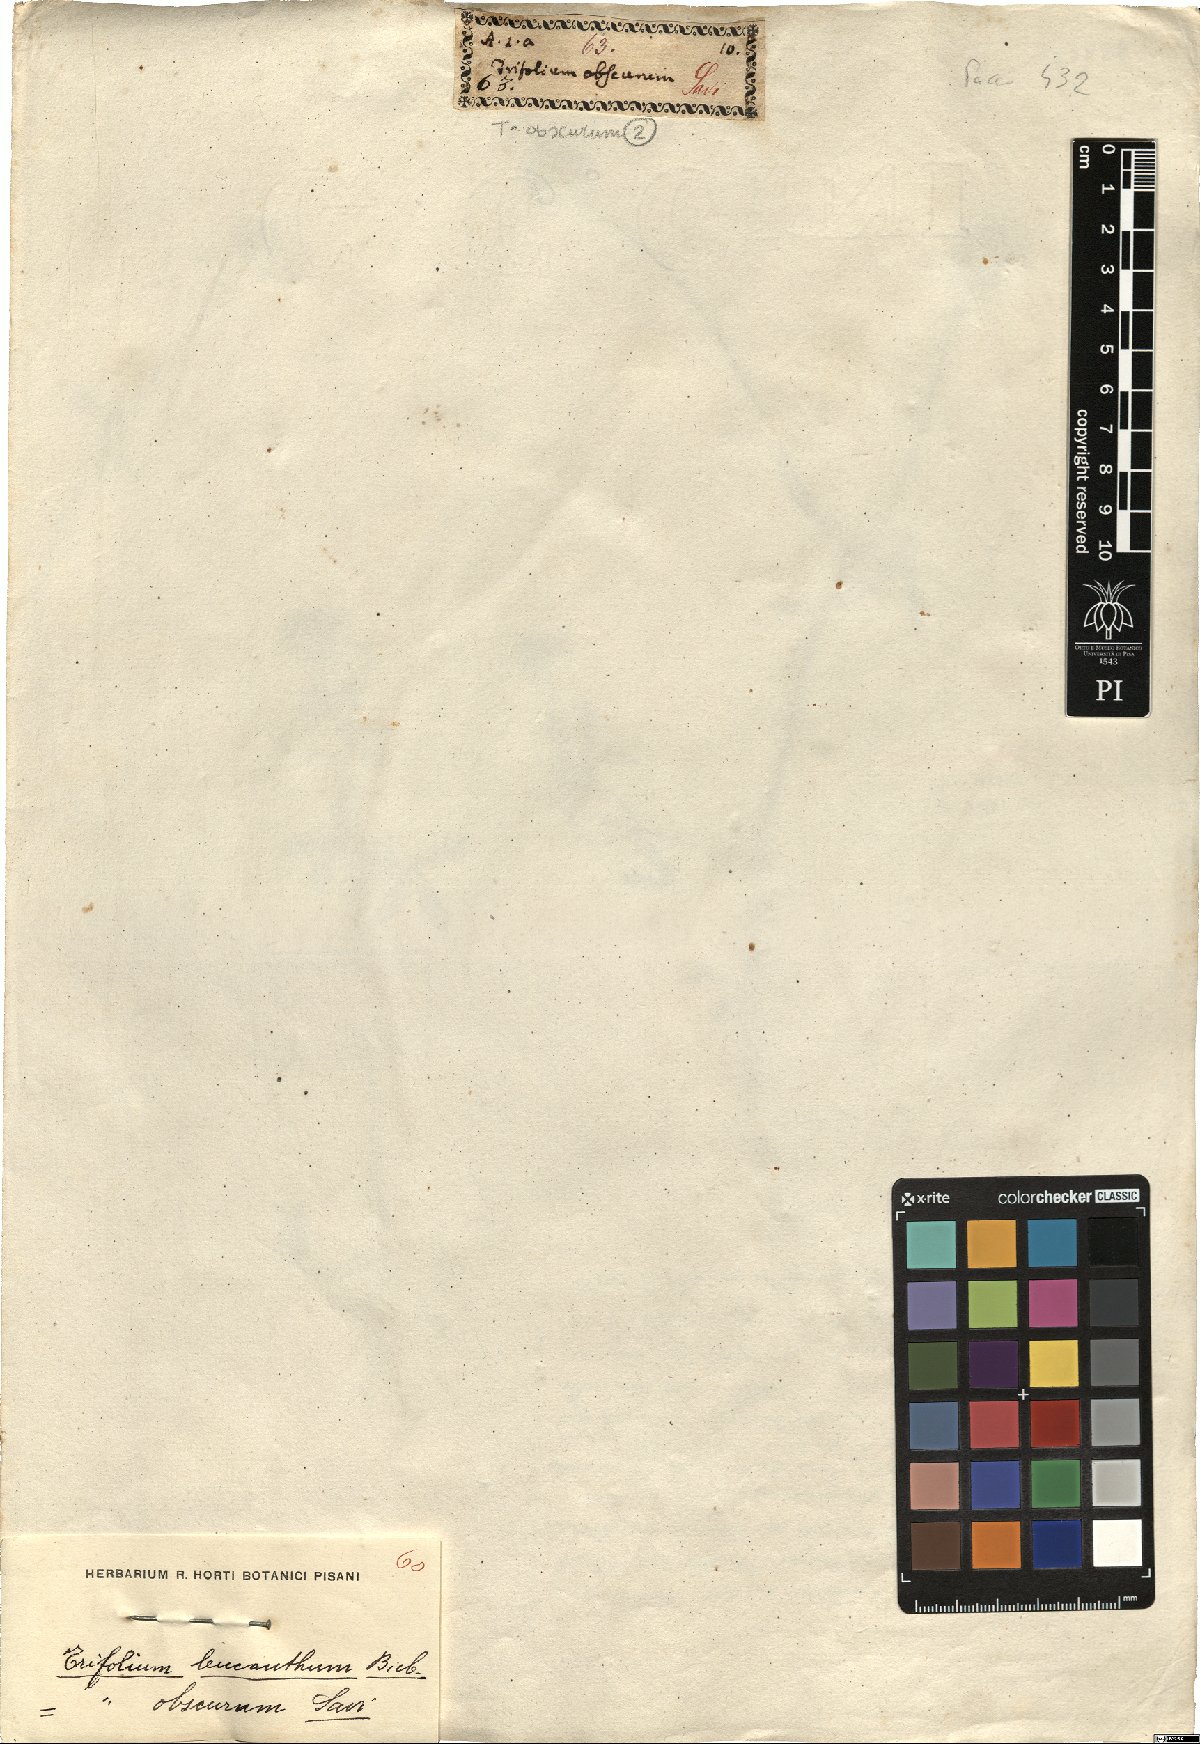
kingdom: Plantae
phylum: Tracheophyta
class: Magnoliopsida
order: Fabales
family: Fabaceae
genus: Trifolium
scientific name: Trifolium obscurum
